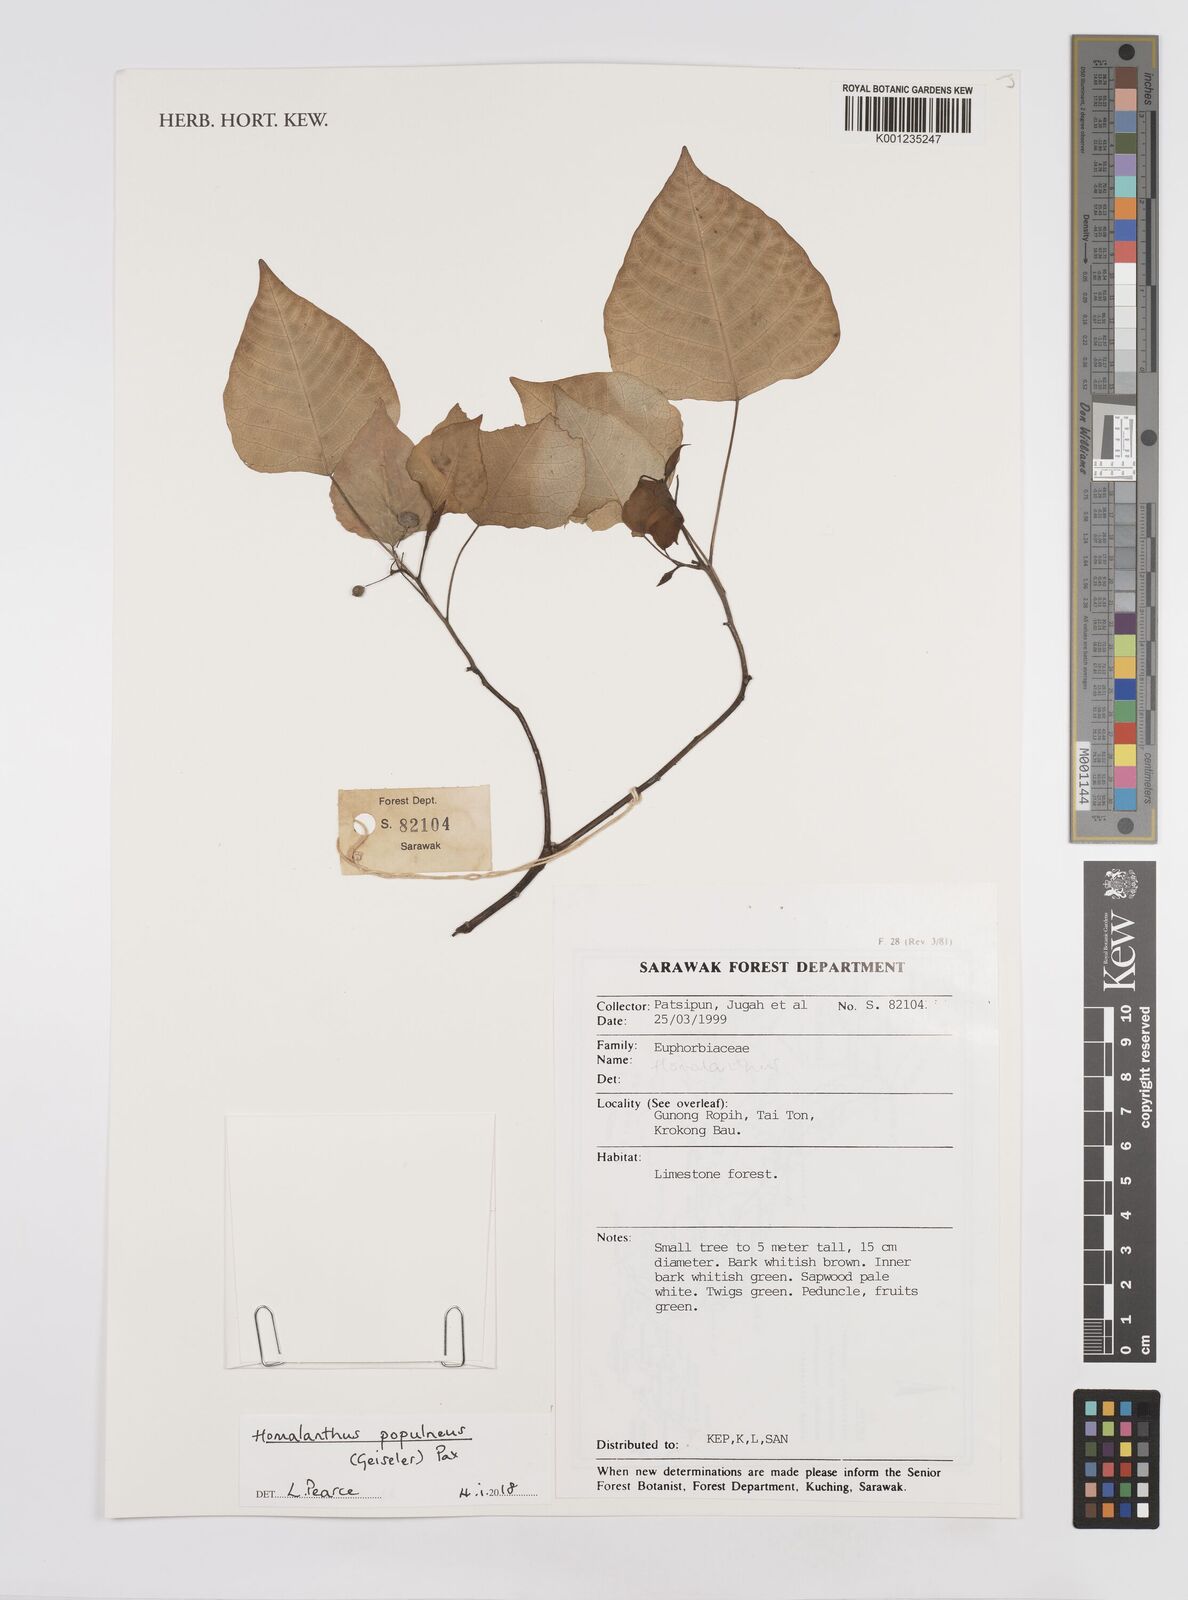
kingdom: Plantae
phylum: Tracheophyta
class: Magnoliopsida
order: Malpighiales
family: Euphorbiaceae
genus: Homalanthus
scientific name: Homalanthus populneus
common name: Spurge
